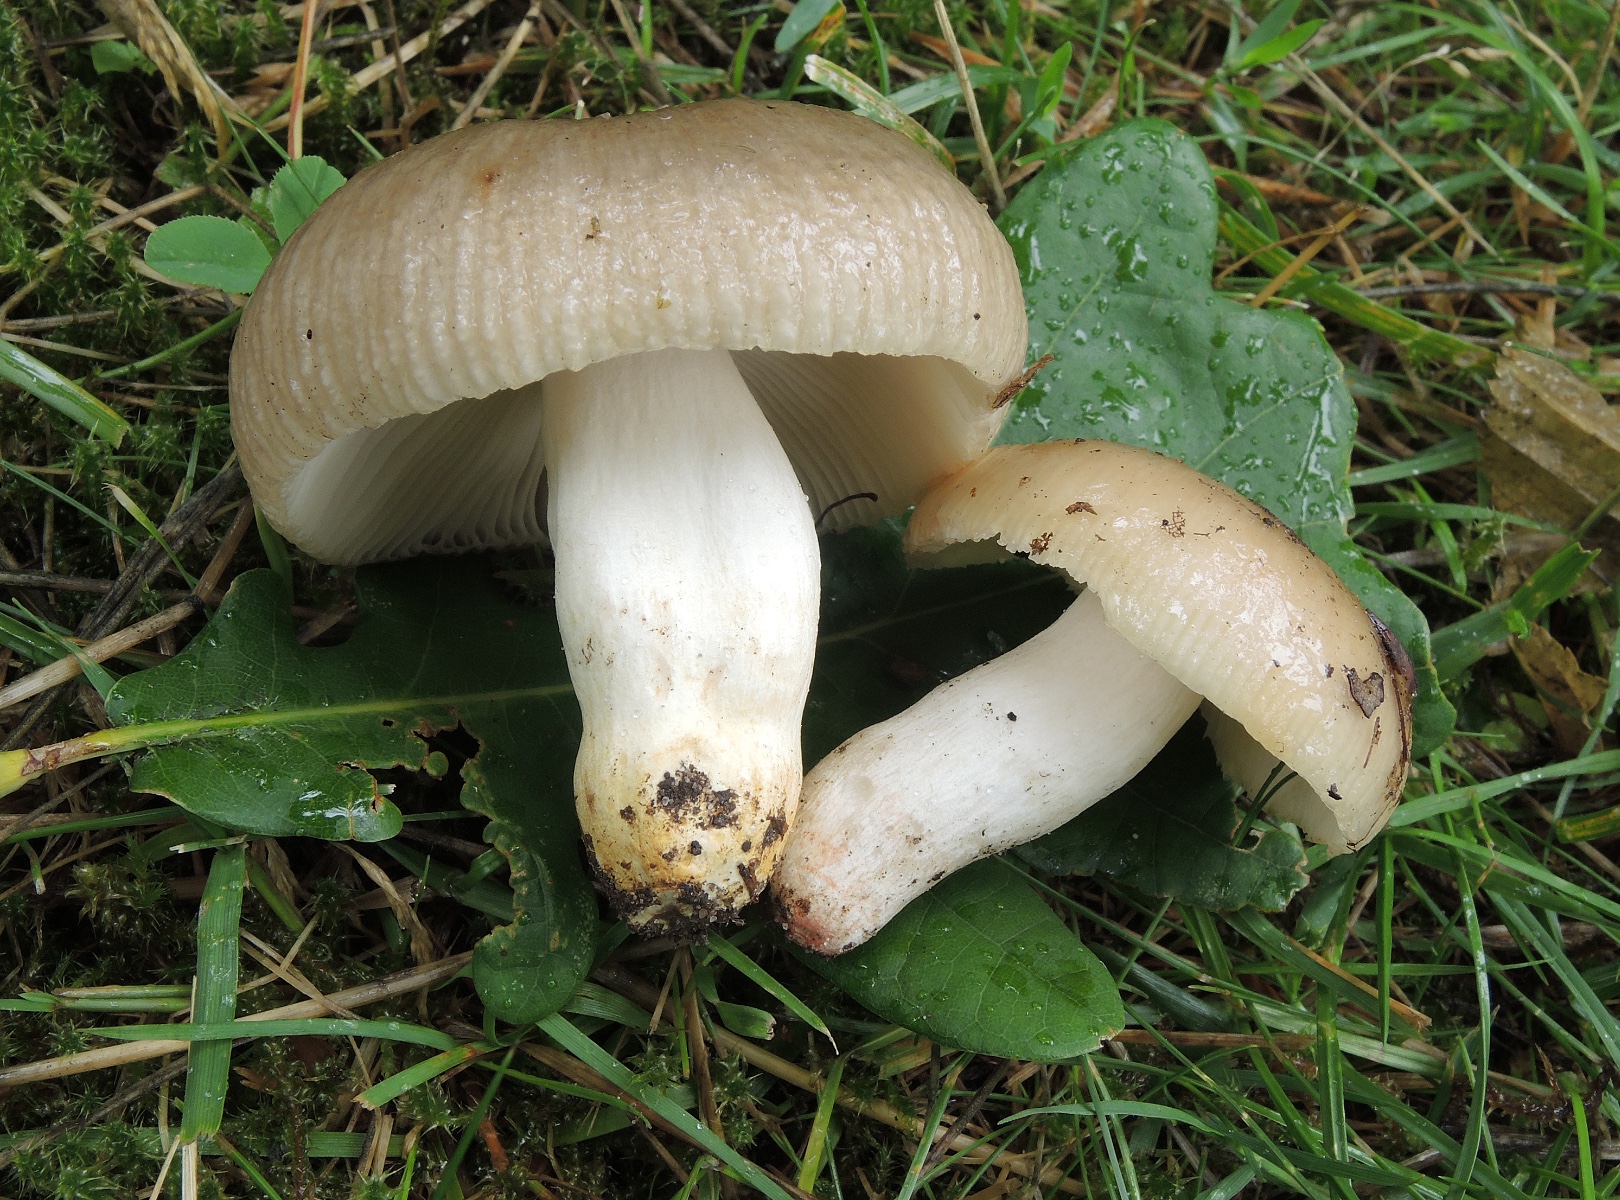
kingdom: Fungi
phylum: Basidiomycota
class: Agaricomycetes
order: Russulales
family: Russulaceae
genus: Russula
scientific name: Russula insignis
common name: gulfodet kam-skørhat
